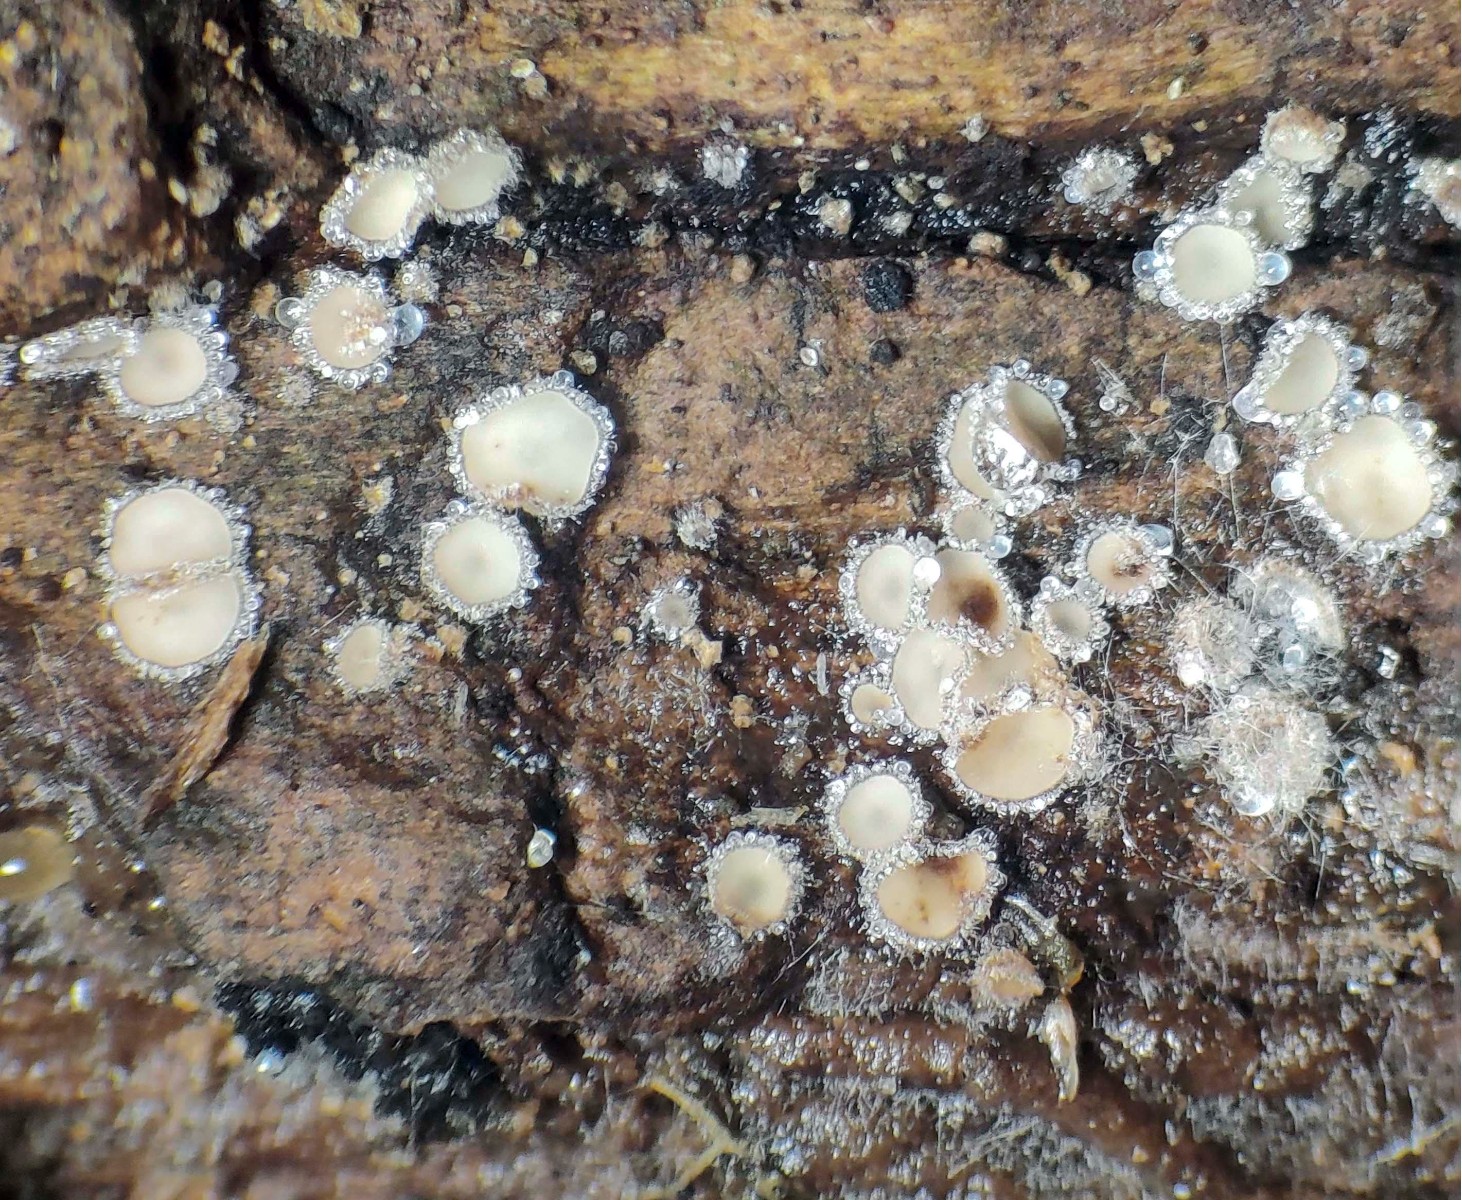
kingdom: Fungi
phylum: Ascomycota
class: Leotiomycetes
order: Helotiales
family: Lachnaceae
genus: Lachnum
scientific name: Lachnum corticale
